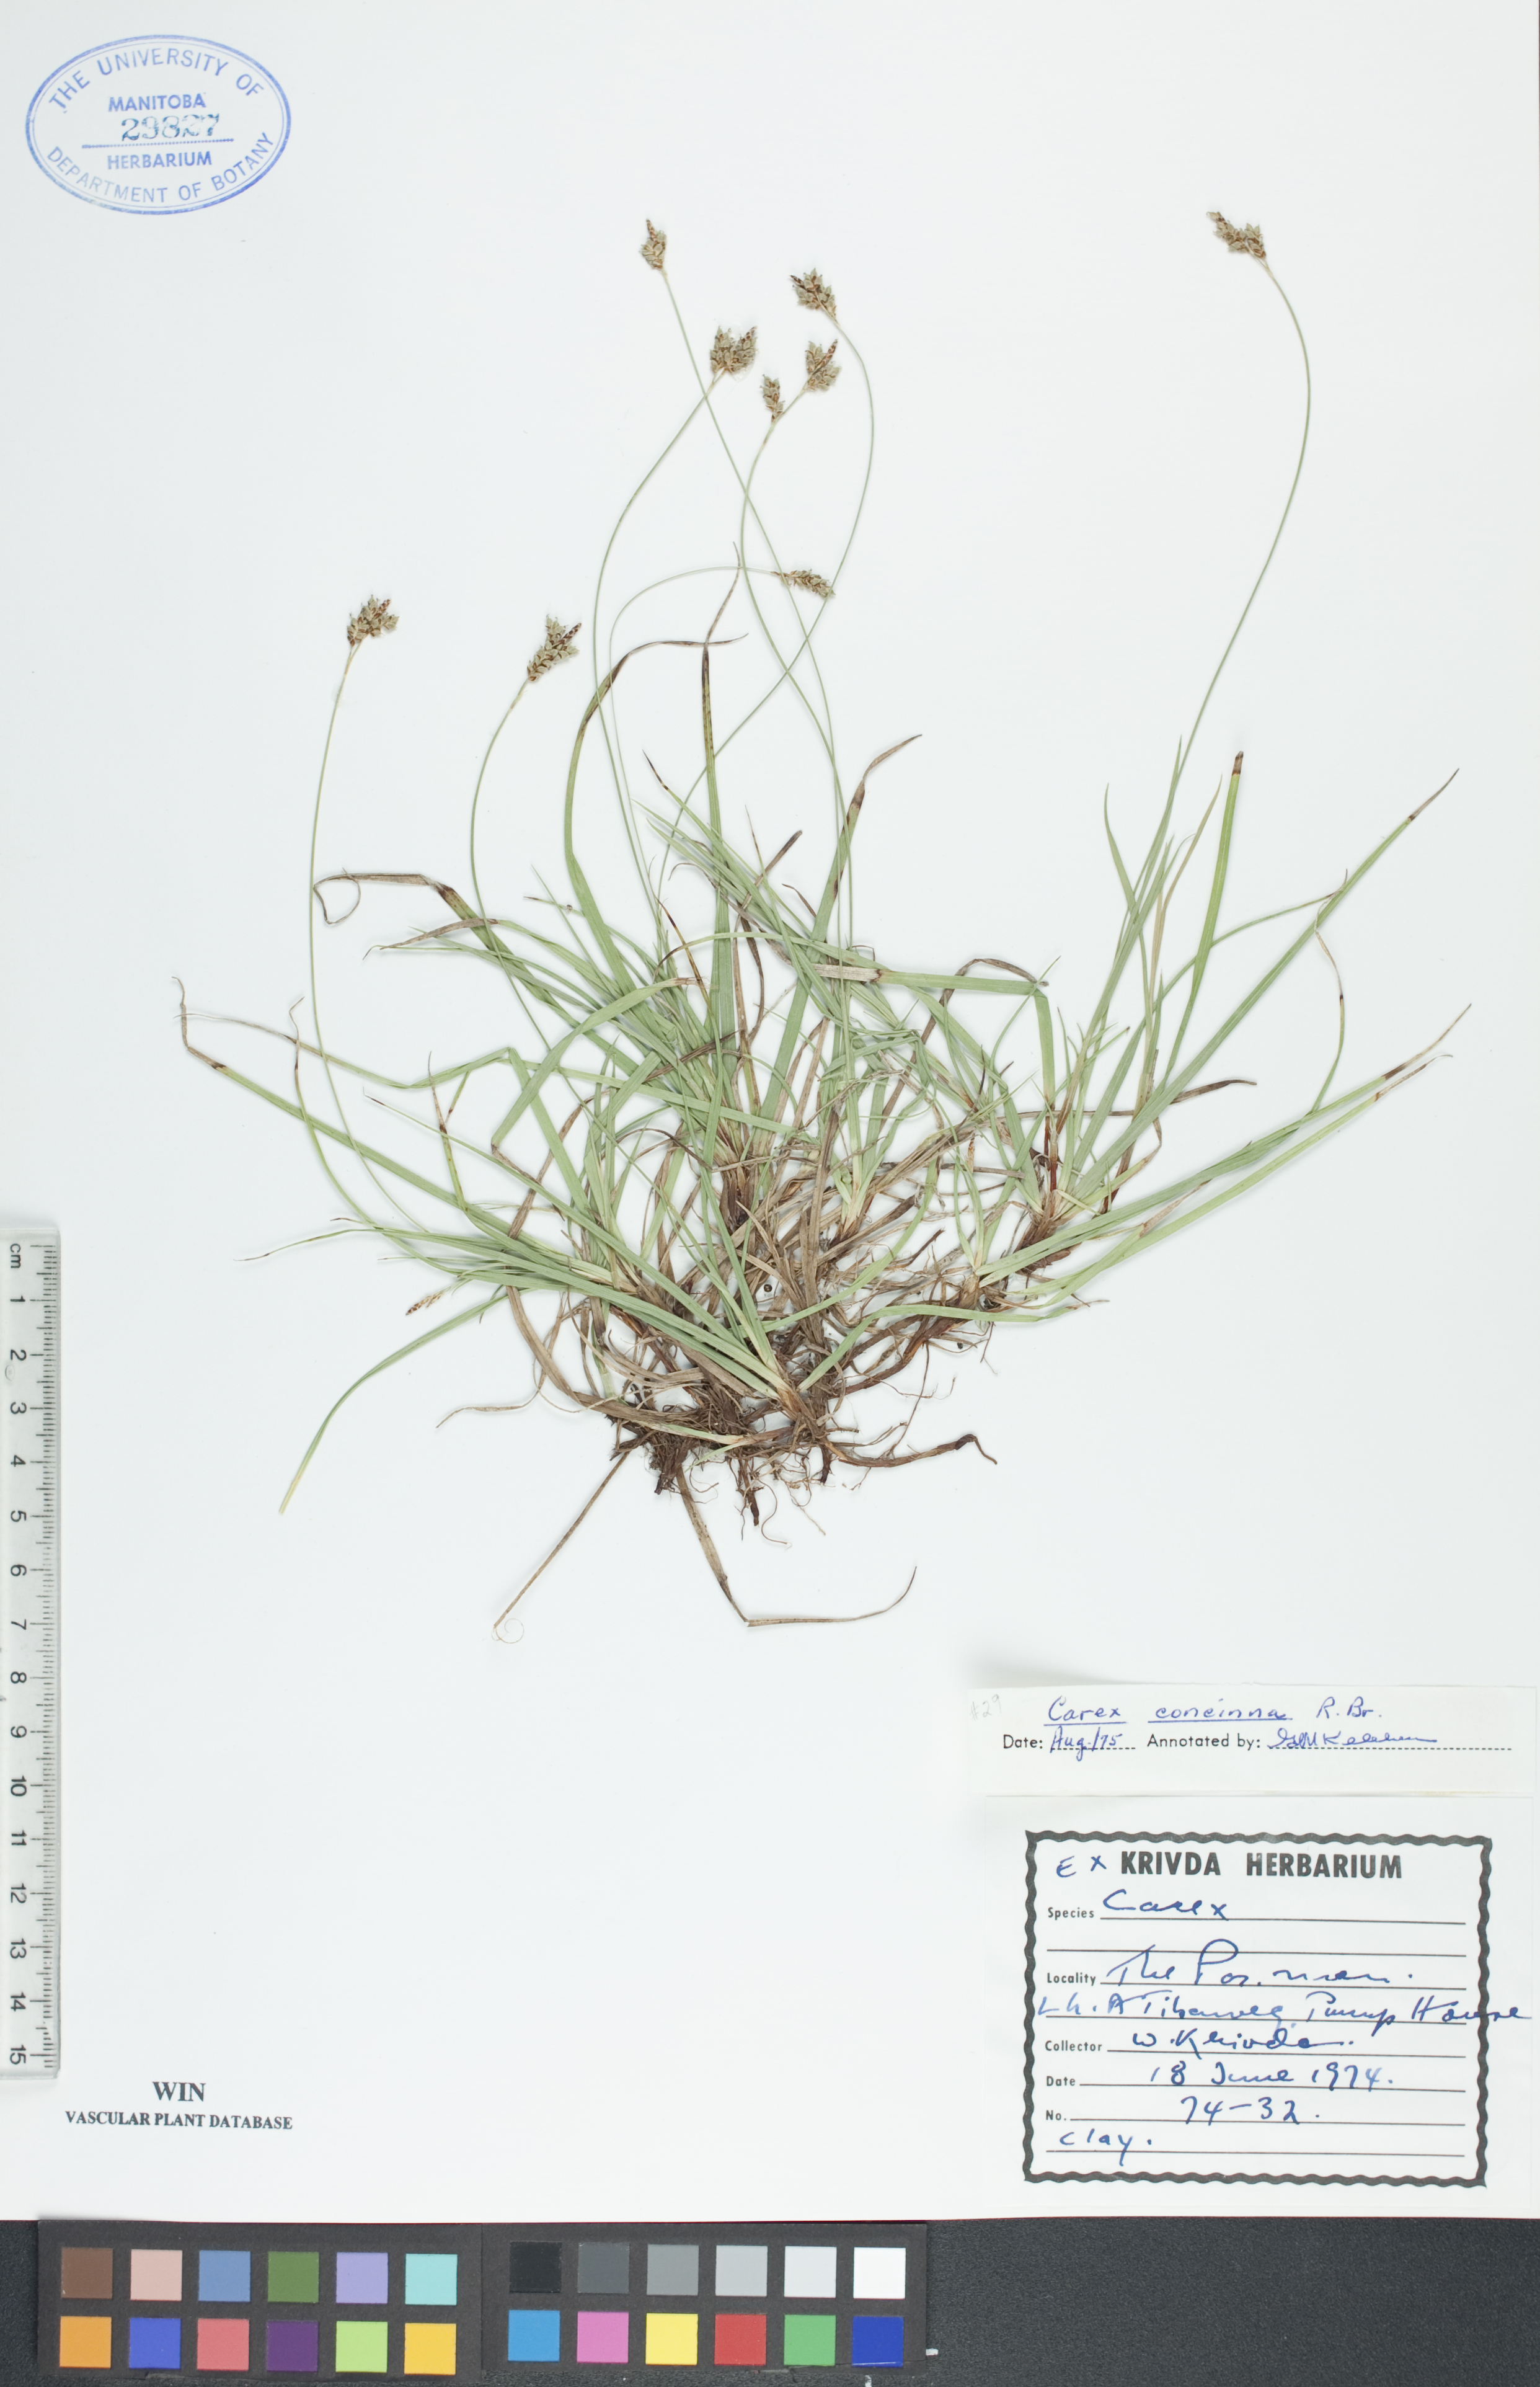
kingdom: Plantae
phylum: Tracheophyta
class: Liliopsida
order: Poales
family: Cyperaceae
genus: Carex
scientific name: Carex concinna
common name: Beautiful sedge
